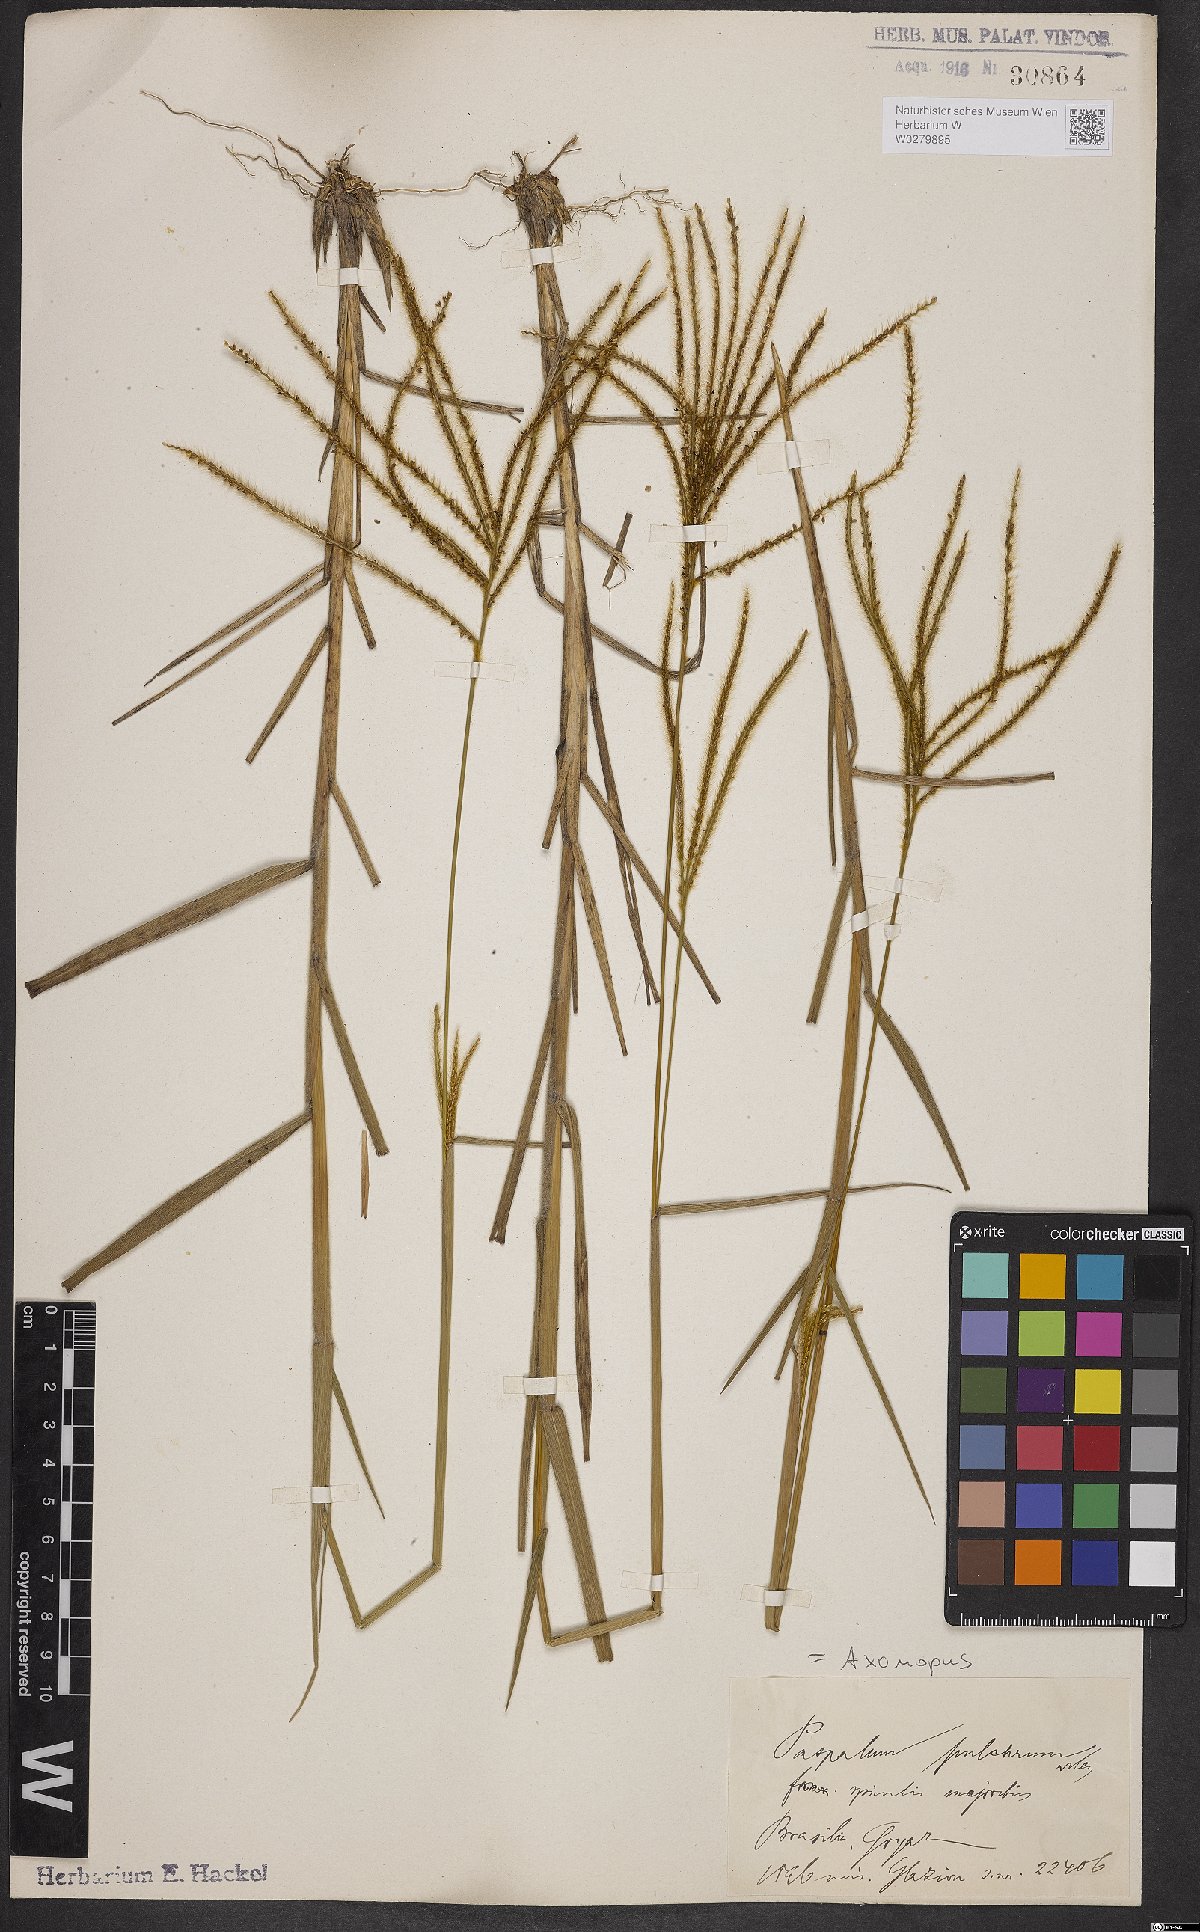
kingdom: Plantae
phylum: Tracheophyta
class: Liliopsida
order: Poales
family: Poaceae
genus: Axonopus
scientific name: Axonopus aureus
